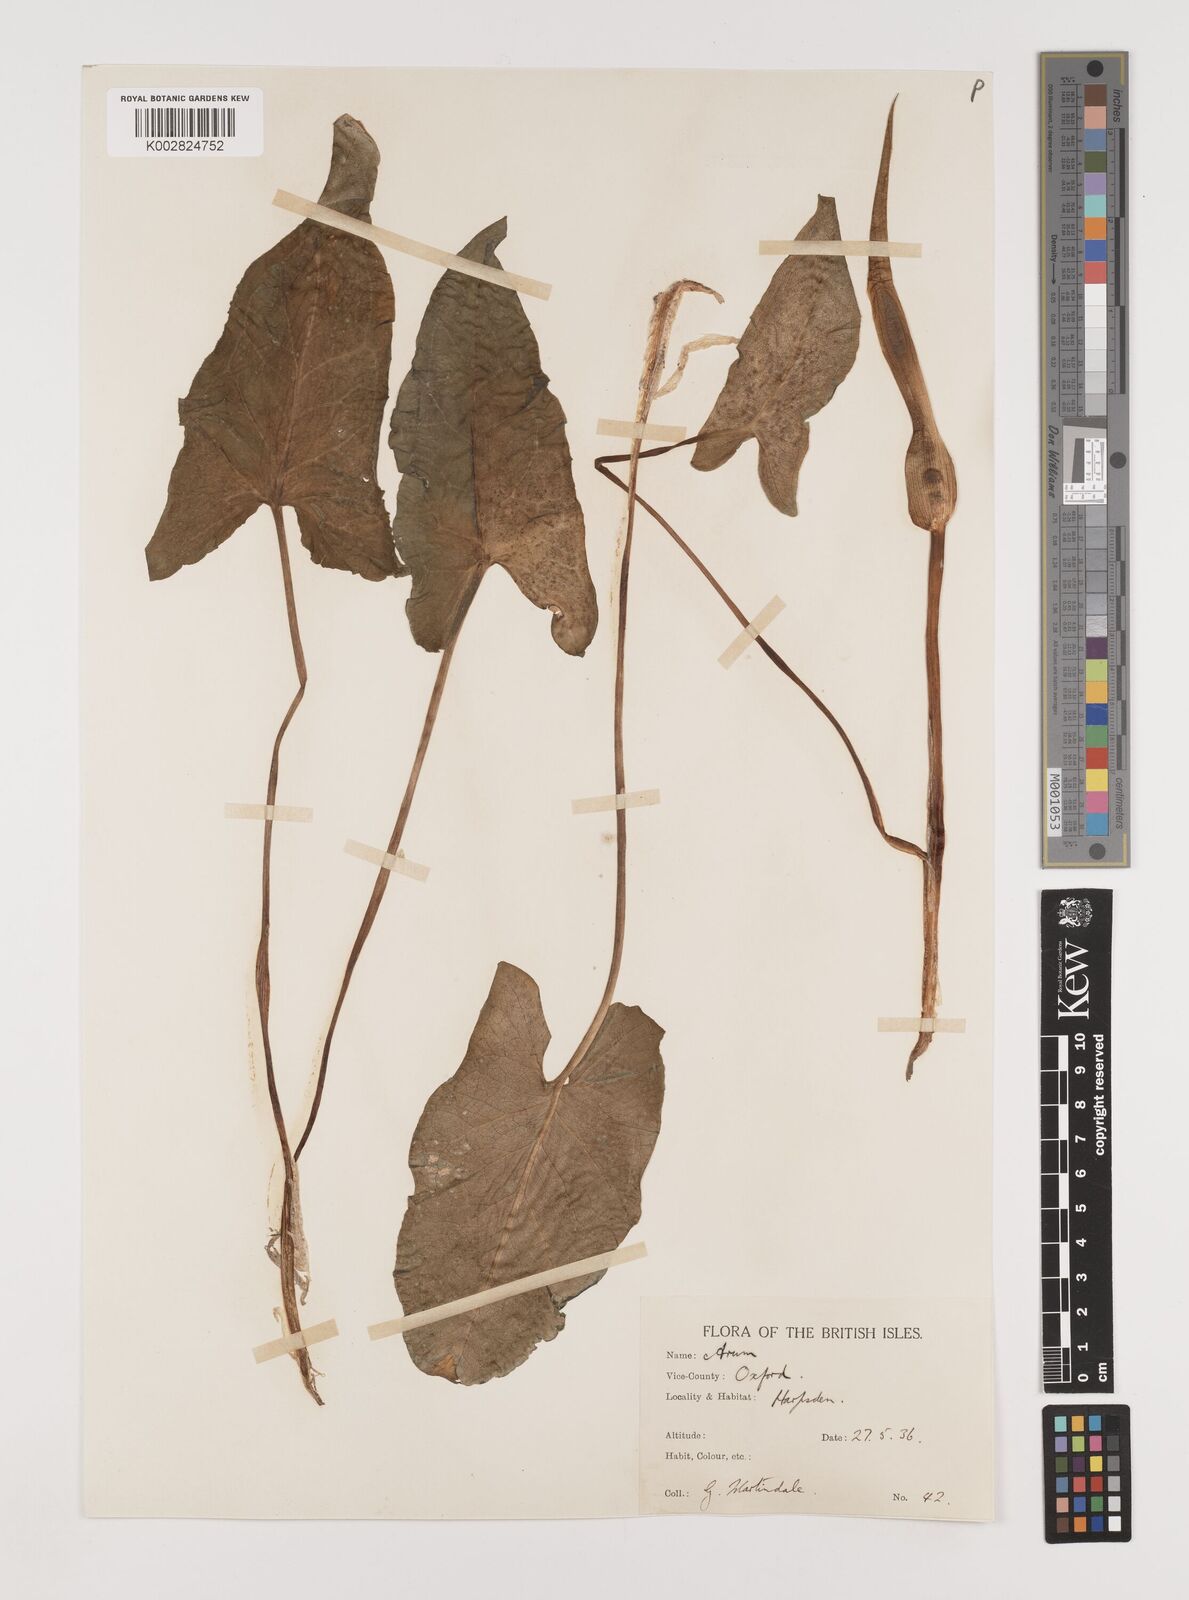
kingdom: Plantae
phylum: Tracheophyta
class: Liliopsida
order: Alismatales
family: Araceae
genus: Arum
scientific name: Arum maculatum
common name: Lords-and-ladies
